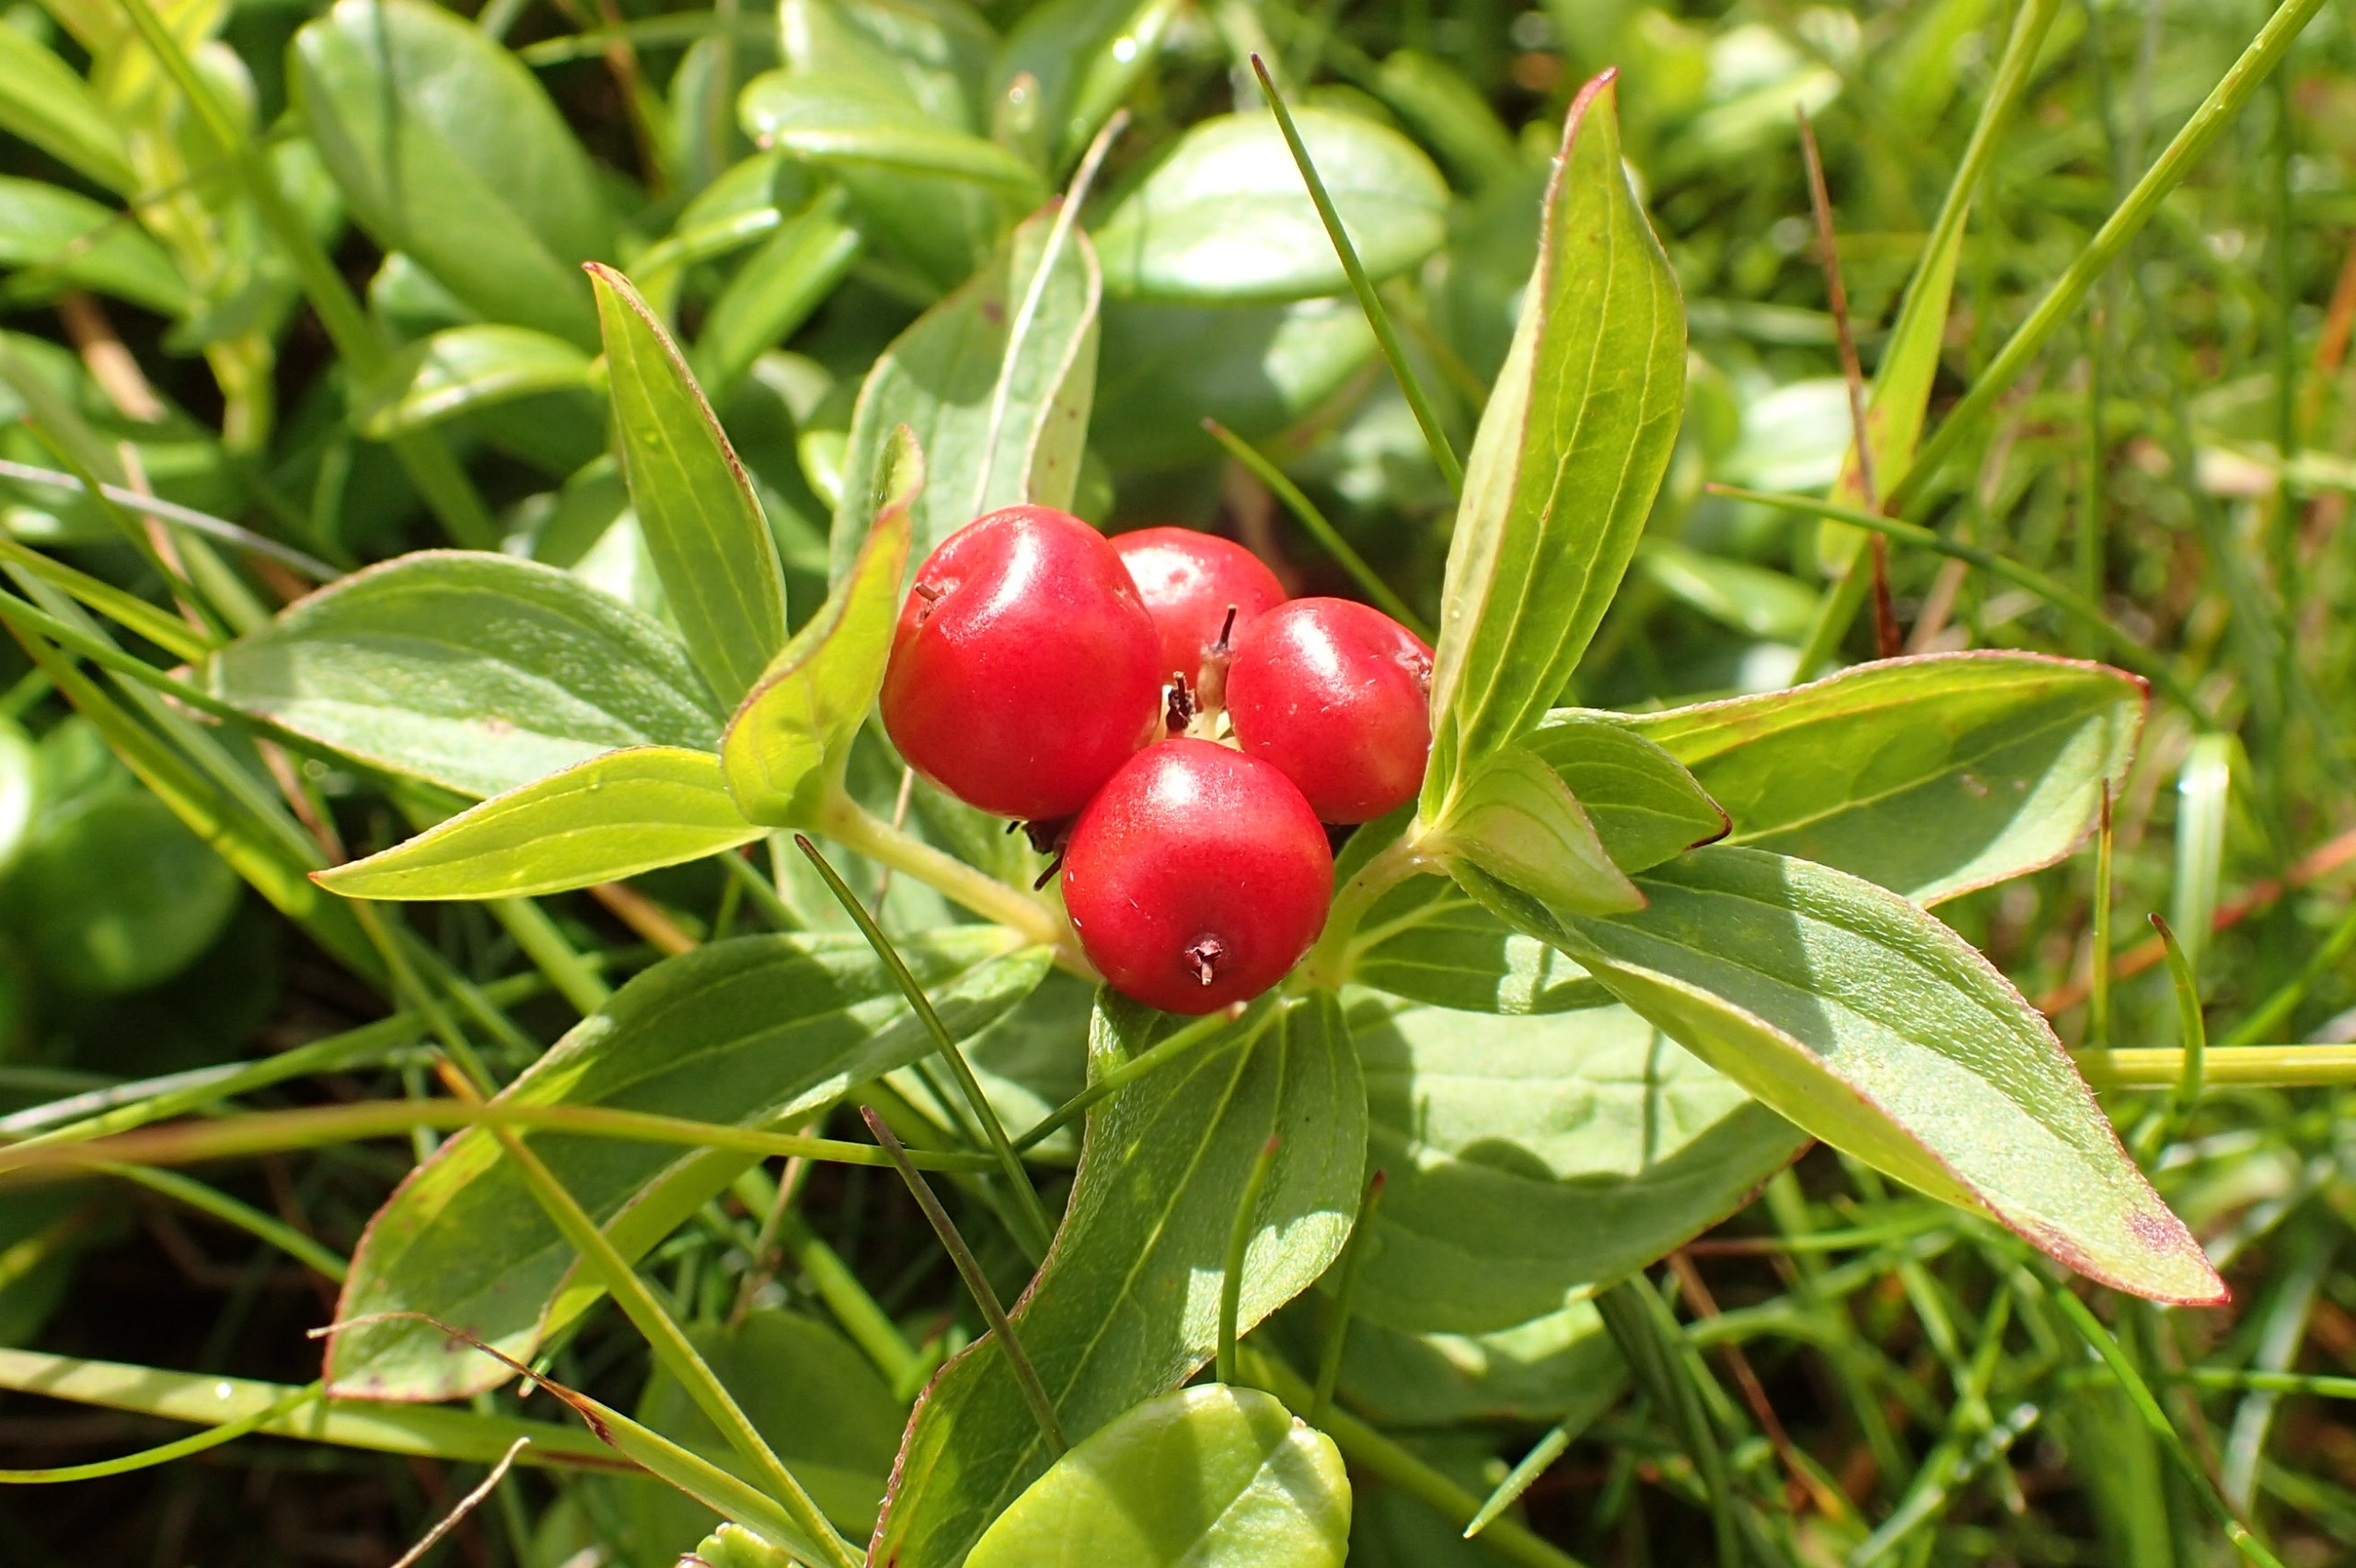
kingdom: Plantae
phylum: Tracheophyta
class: Magnoliopsida
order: Cornales
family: Cornaceae
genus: Cornus
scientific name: Cornus suecica
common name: Hønsebær
